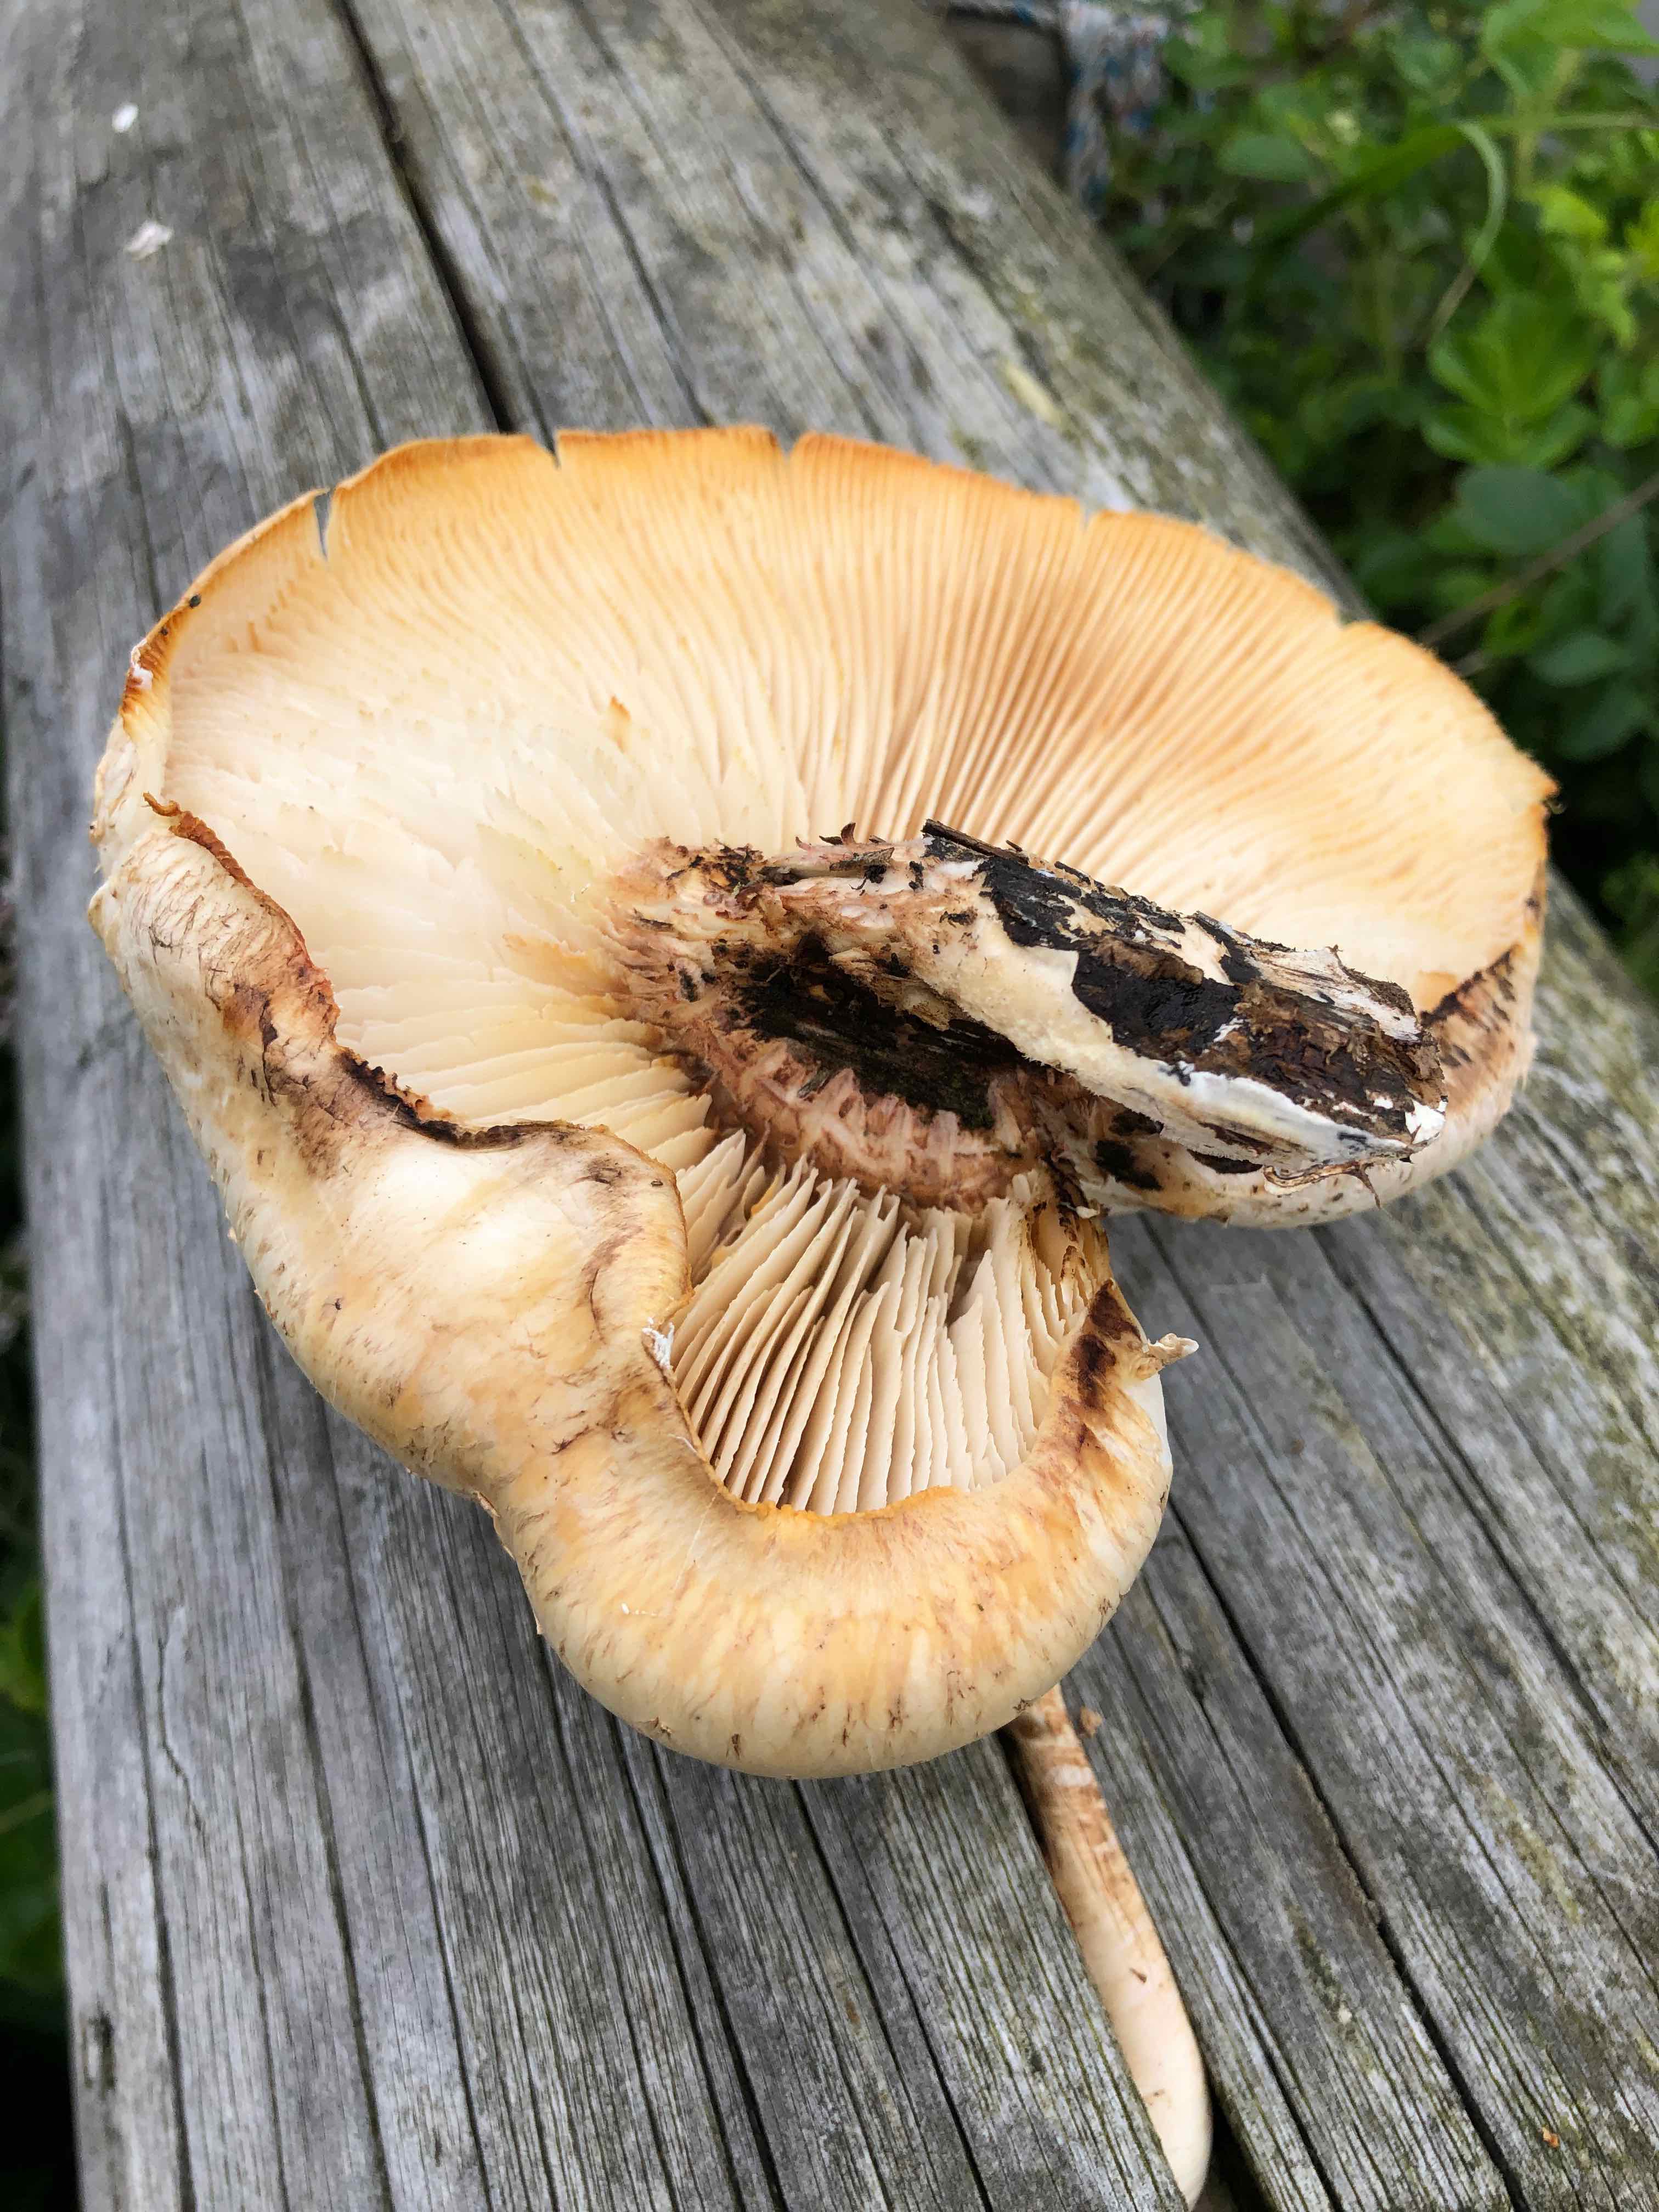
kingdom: Fungi
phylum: Basidiomycota
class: Agaricomycetes
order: Gloeophyllales
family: Gloeophyllaceae
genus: Neolentinus
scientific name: Neolentinus lepideus
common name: skællet sejhat
